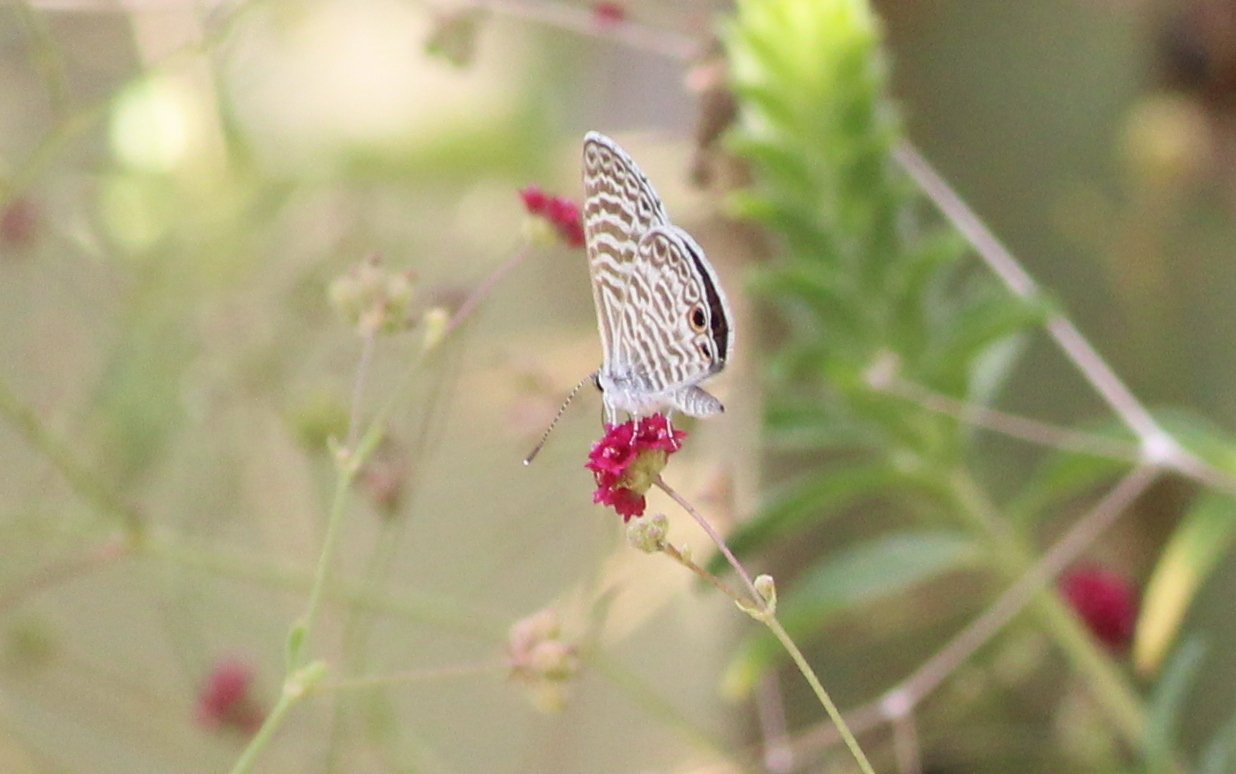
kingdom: Animalia
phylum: Arthropoda
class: Insecta
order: Lepidoptera
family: Lycaenidae
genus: Celastrina
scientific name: Celastrina
